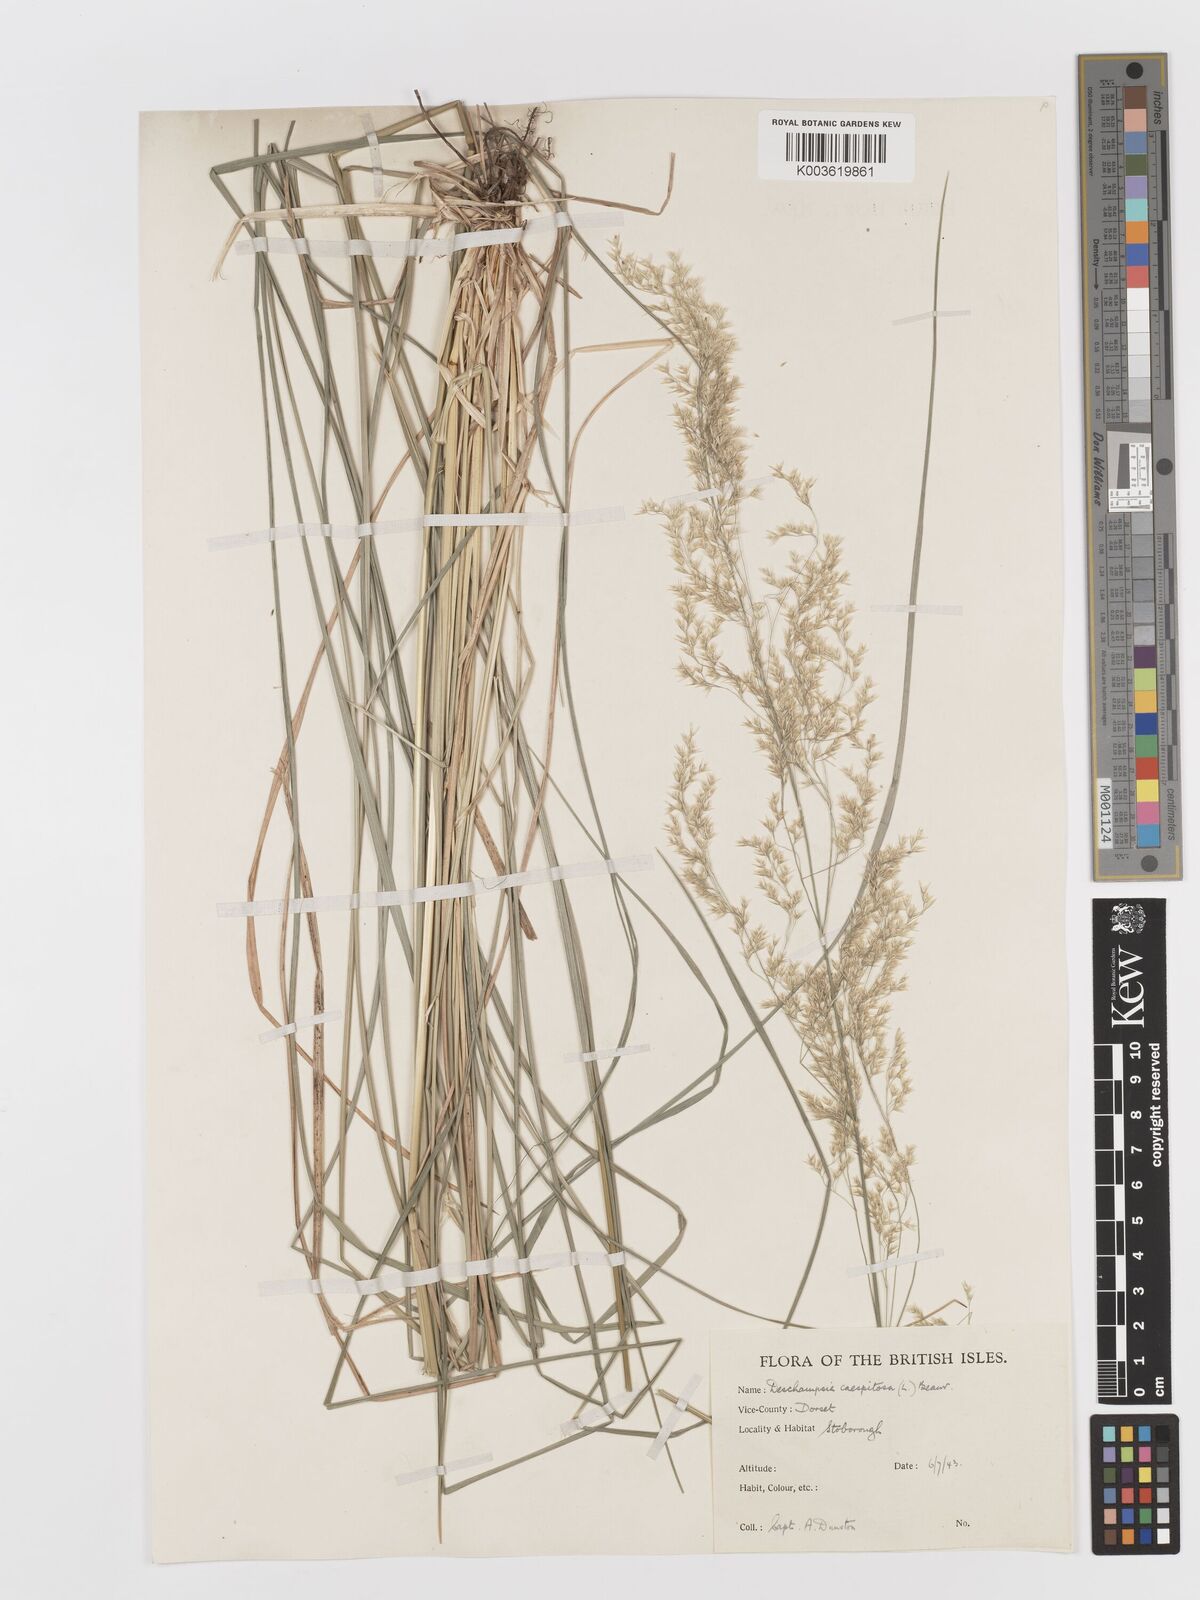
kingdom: Plantae
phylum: Tracheophyta
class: Liliopsida
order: Poales
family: Poaceae
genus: Deschampsia
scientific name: Deschampsia cespitosa
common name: Tufted hair-grass
